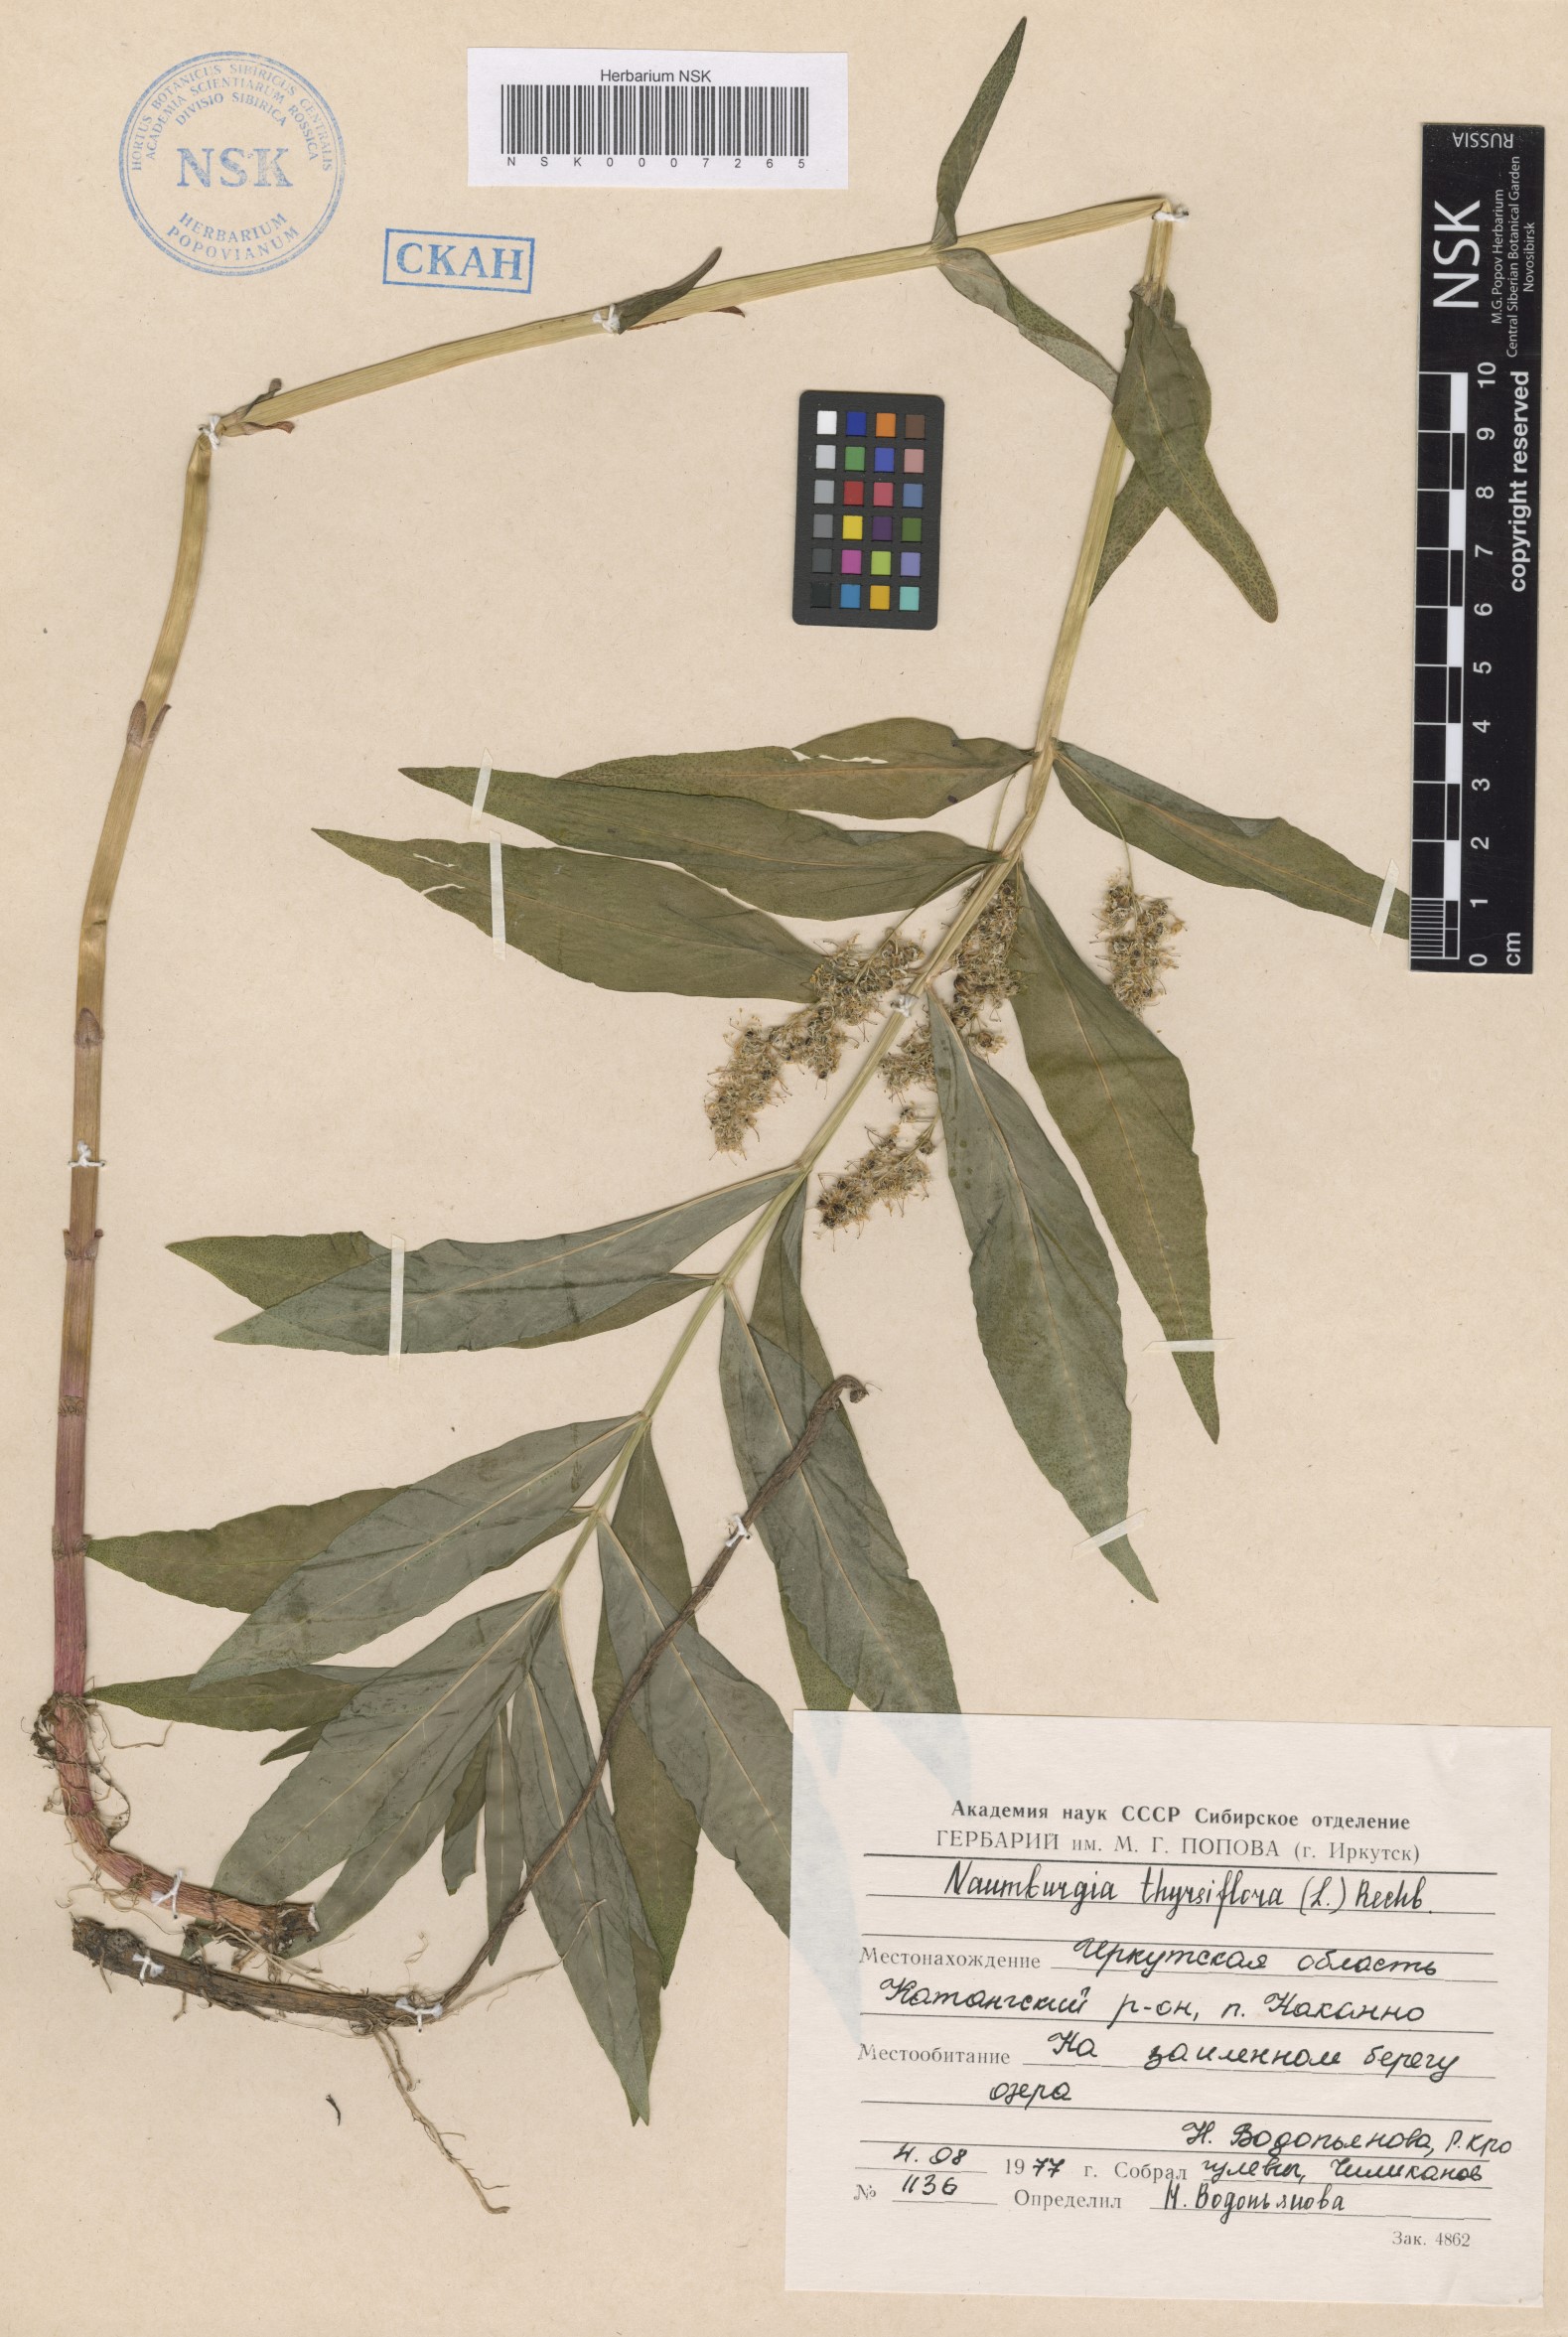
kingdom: Plantae
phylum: Tracheophyta
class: Magnoliopsida
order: Ericales
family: Primulaceae
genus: Lysimachia
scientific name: Lysimachia thyrsiflora
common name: Tufted loosestrife
